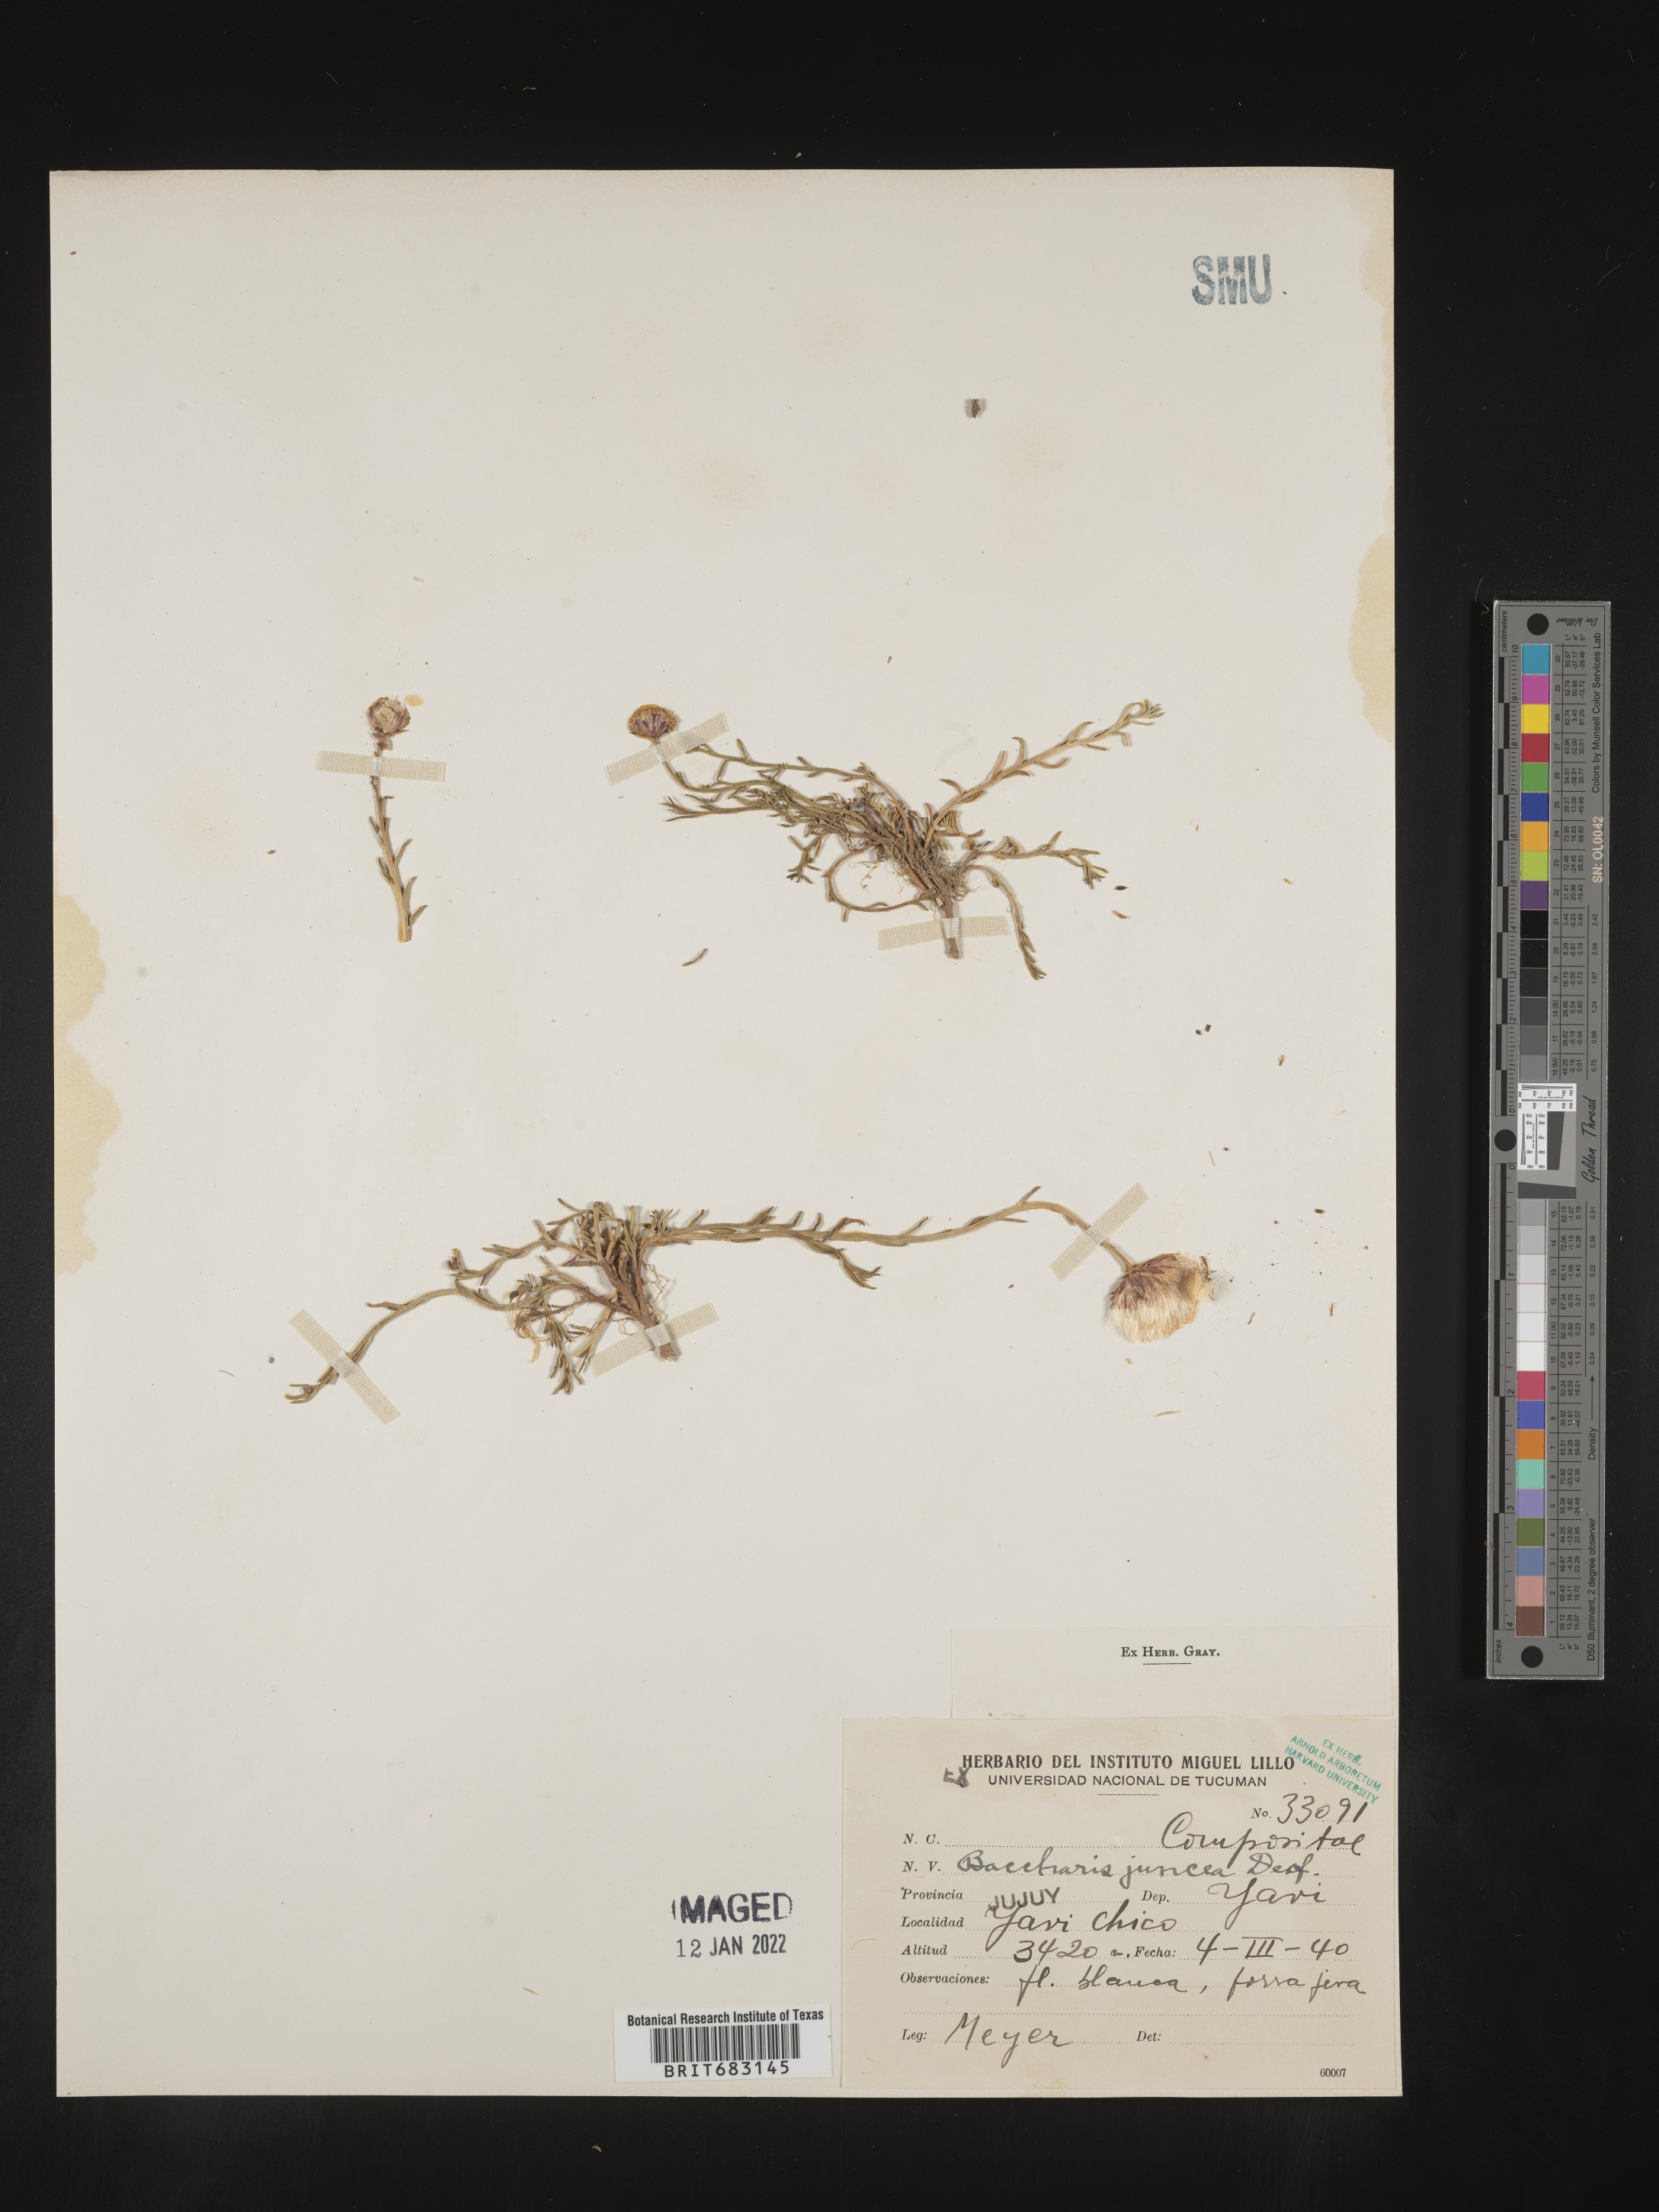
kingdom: Plantae
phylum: Tracheophyta
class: Magnoliopsida
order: Asterales
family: Asteraceae
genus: Baccharis
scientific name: Baccharis
